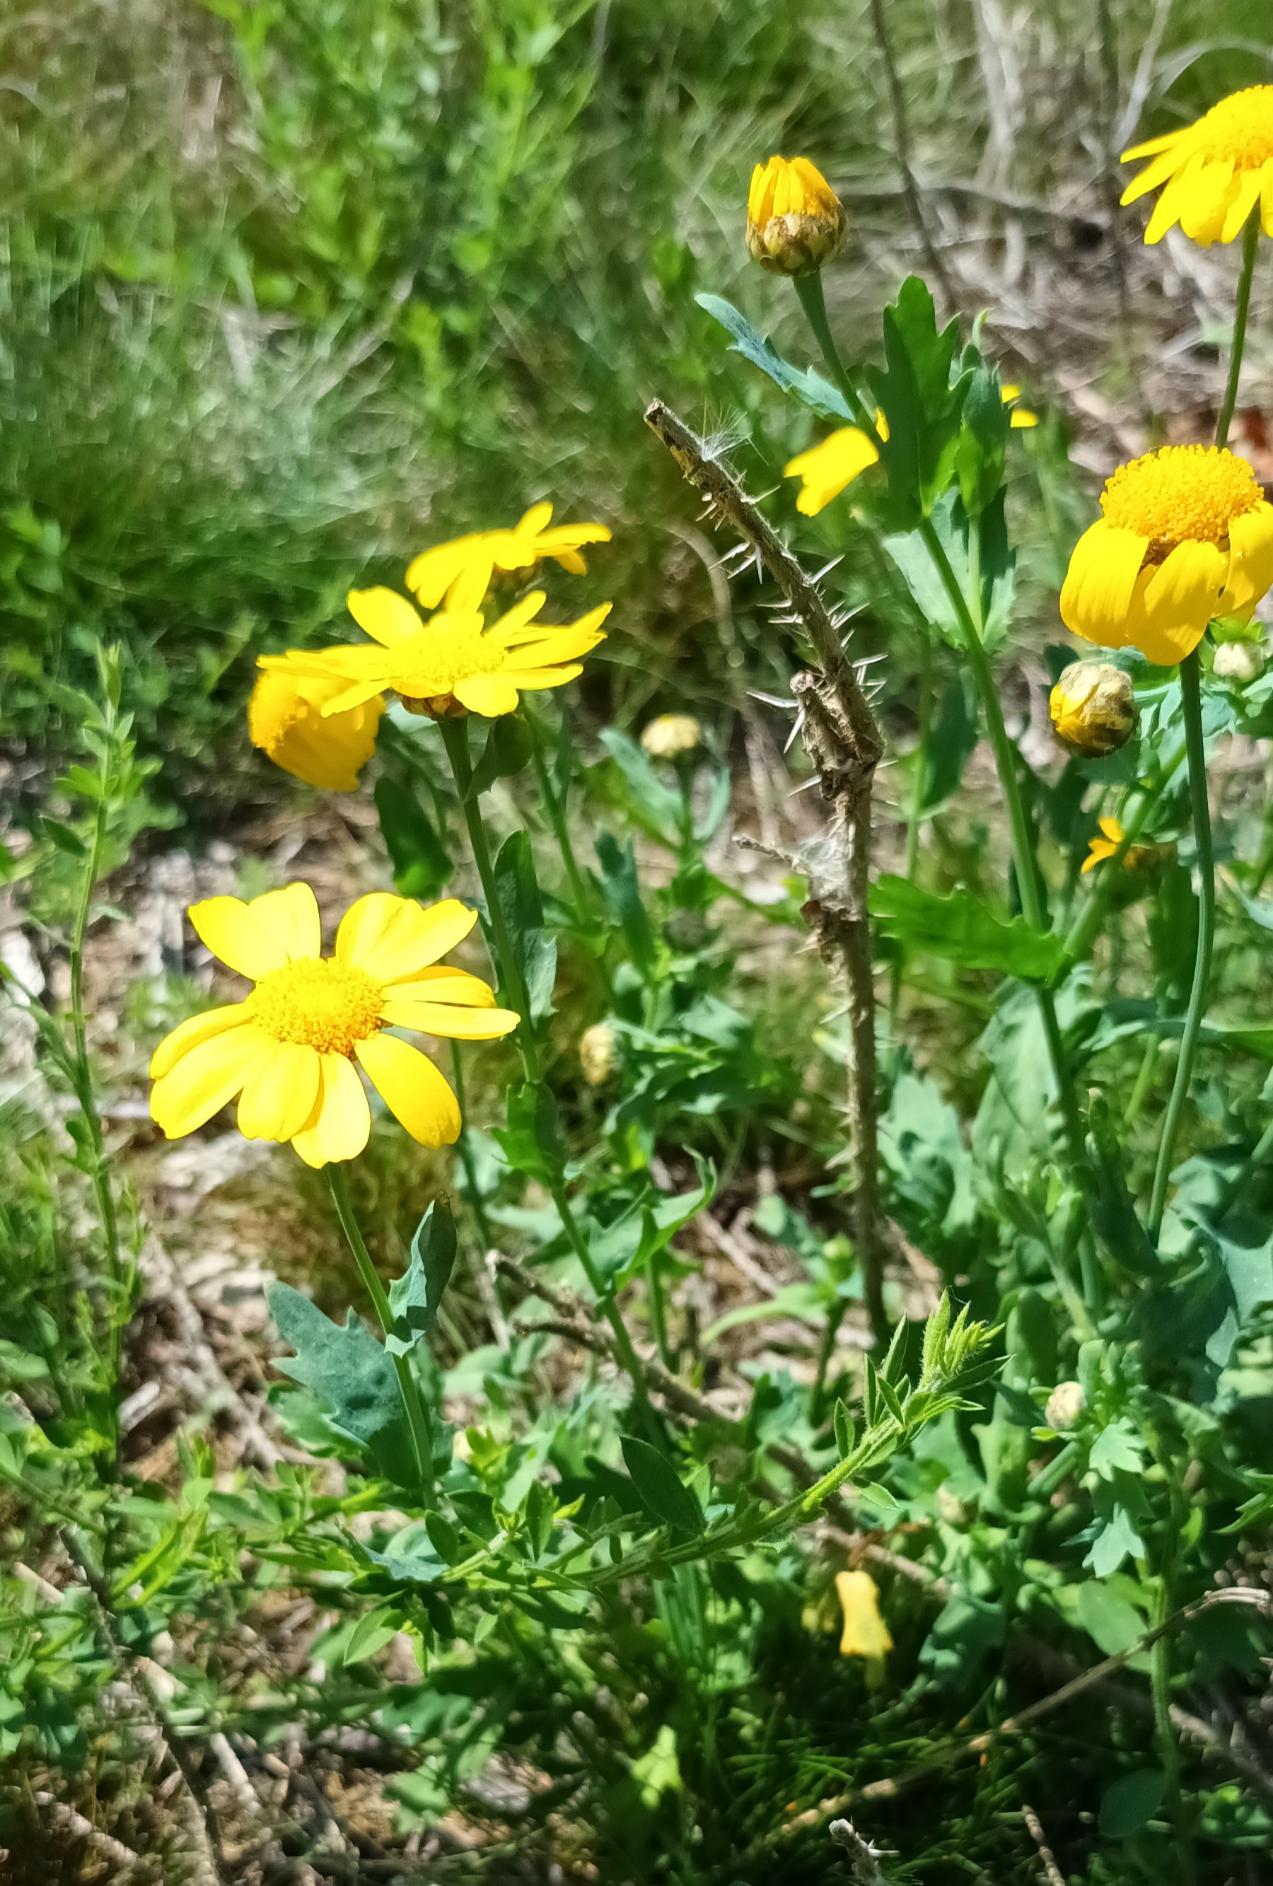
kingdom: Plantae
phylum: Tracheophyta
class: Magnoliopsida
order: Asterales
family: Asteraceae
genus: Glebionis
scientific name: Glebionis segetum
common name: Gul okseøje
